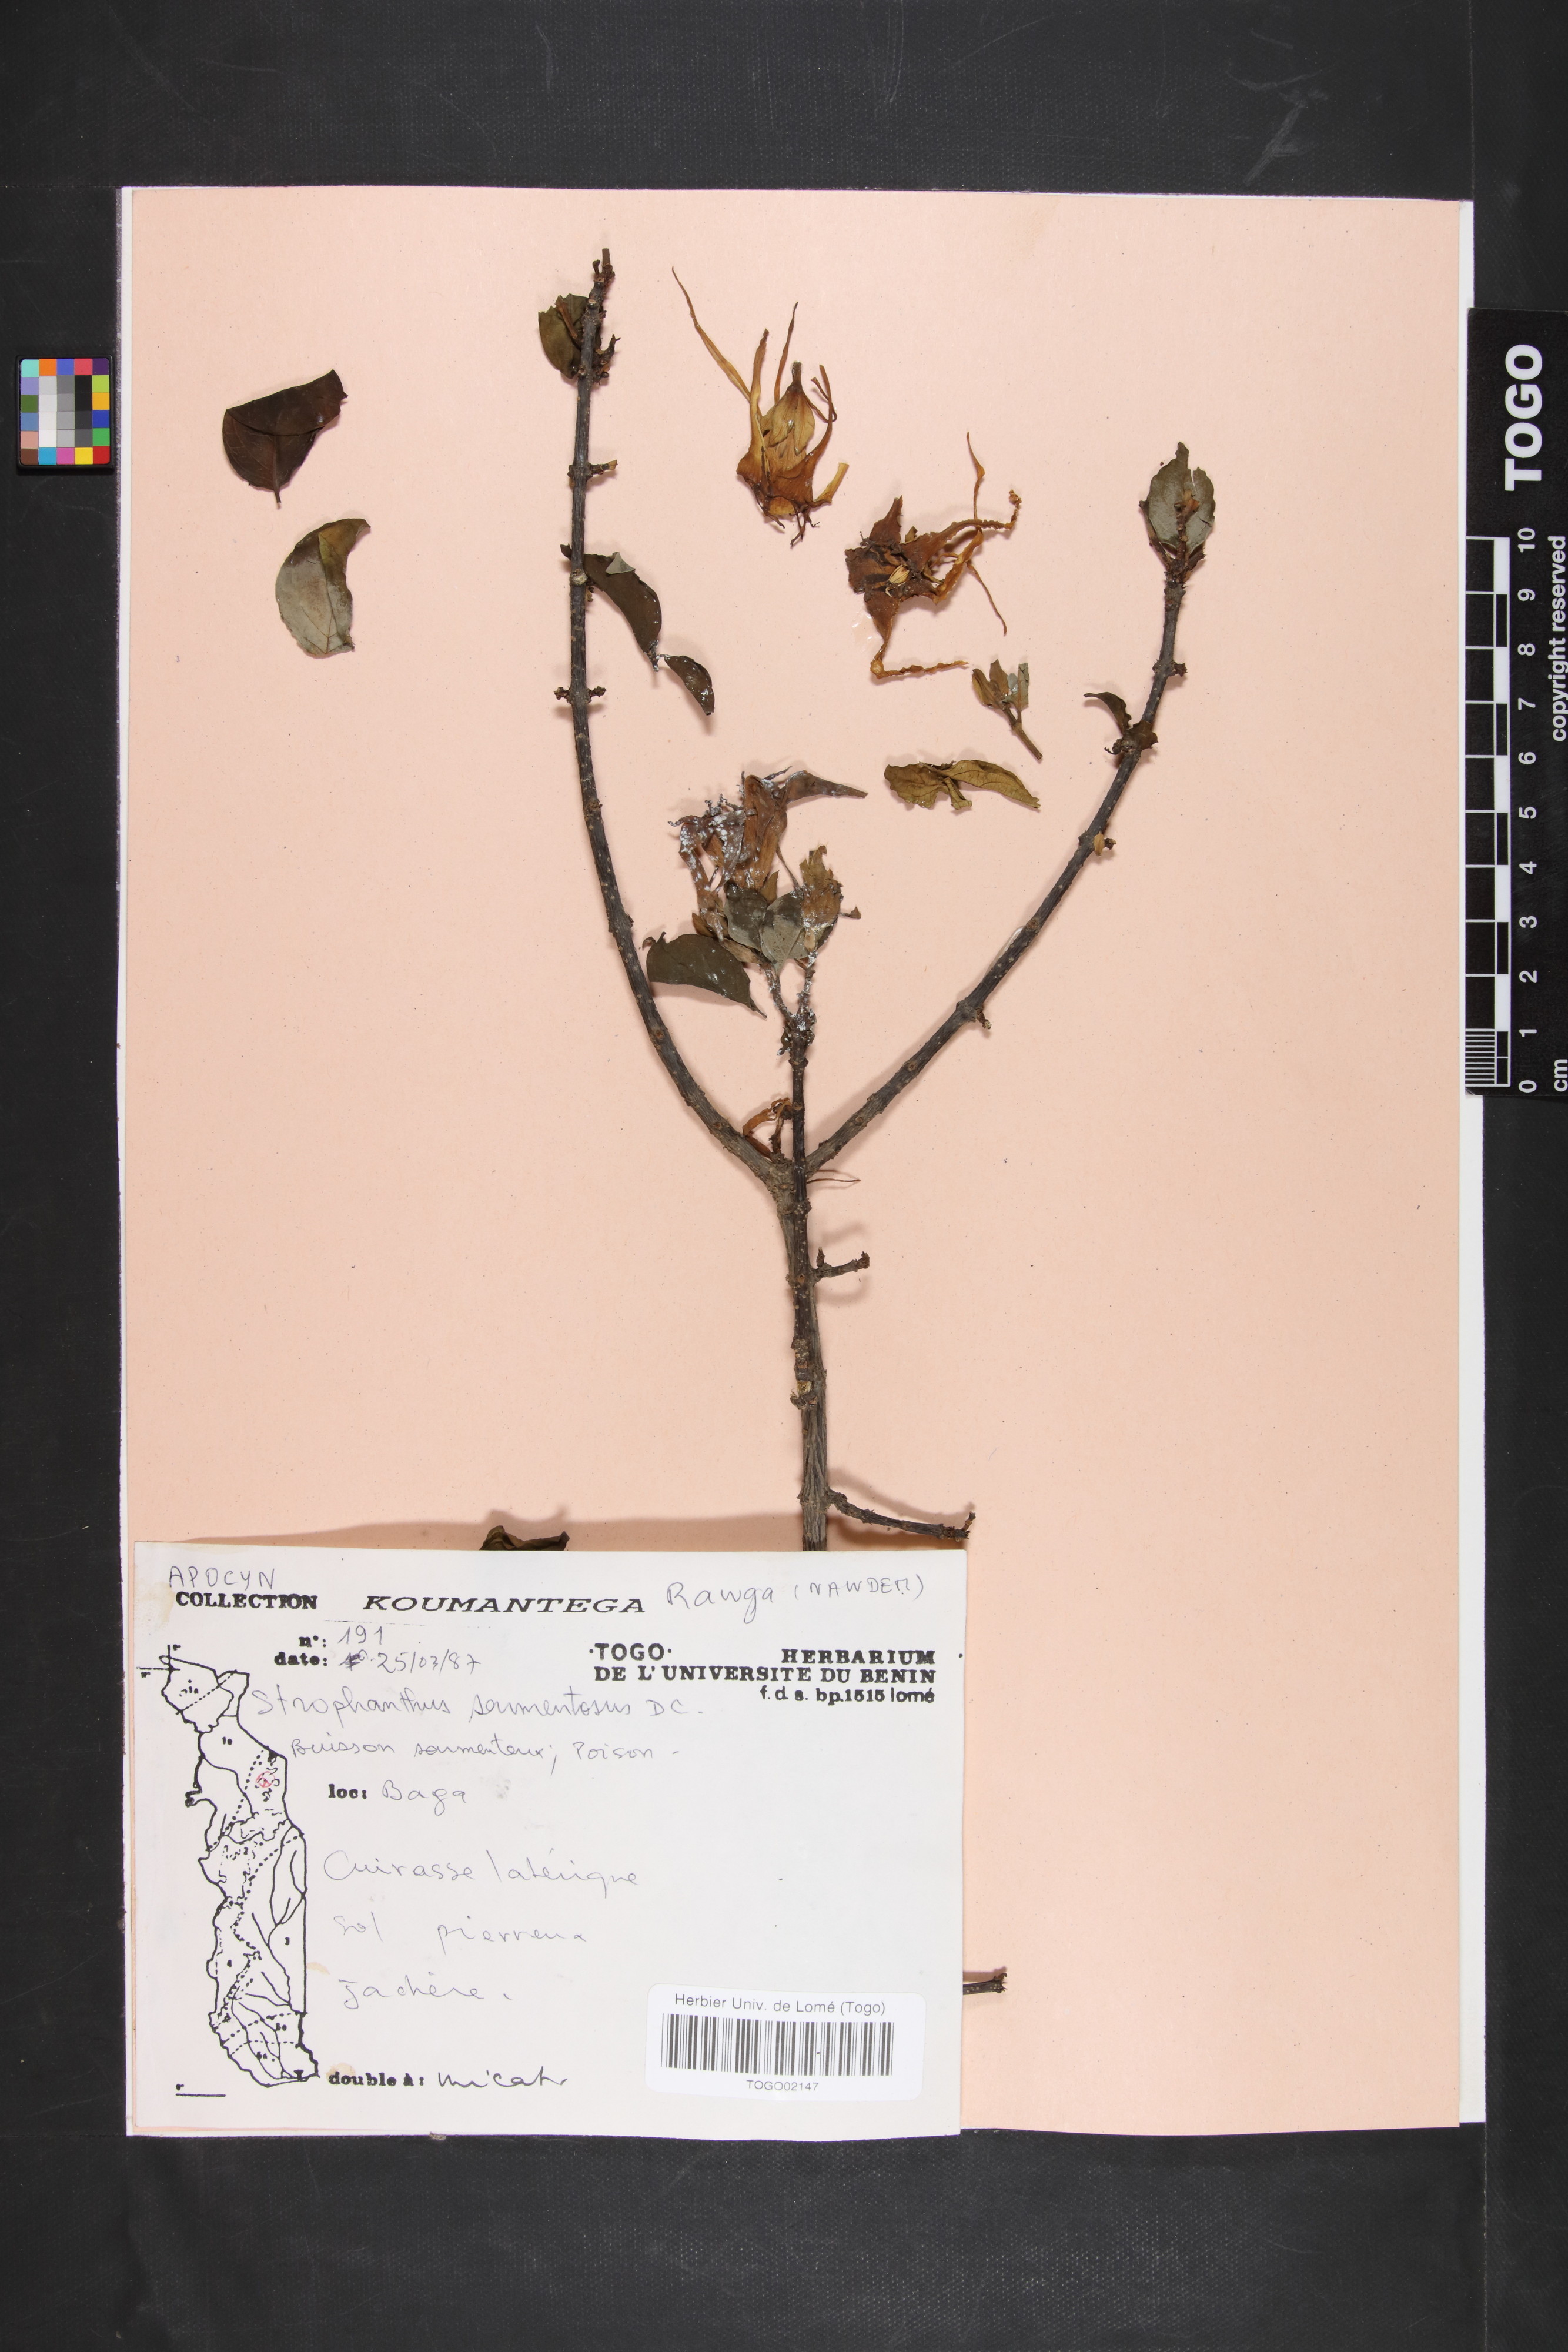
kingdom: Plantae
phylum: Tracheophyta
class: Magnoliopsida
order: Gentianales
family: Apocynaceae
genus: Strophanthus
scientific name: Strophanthus sarmentosus
